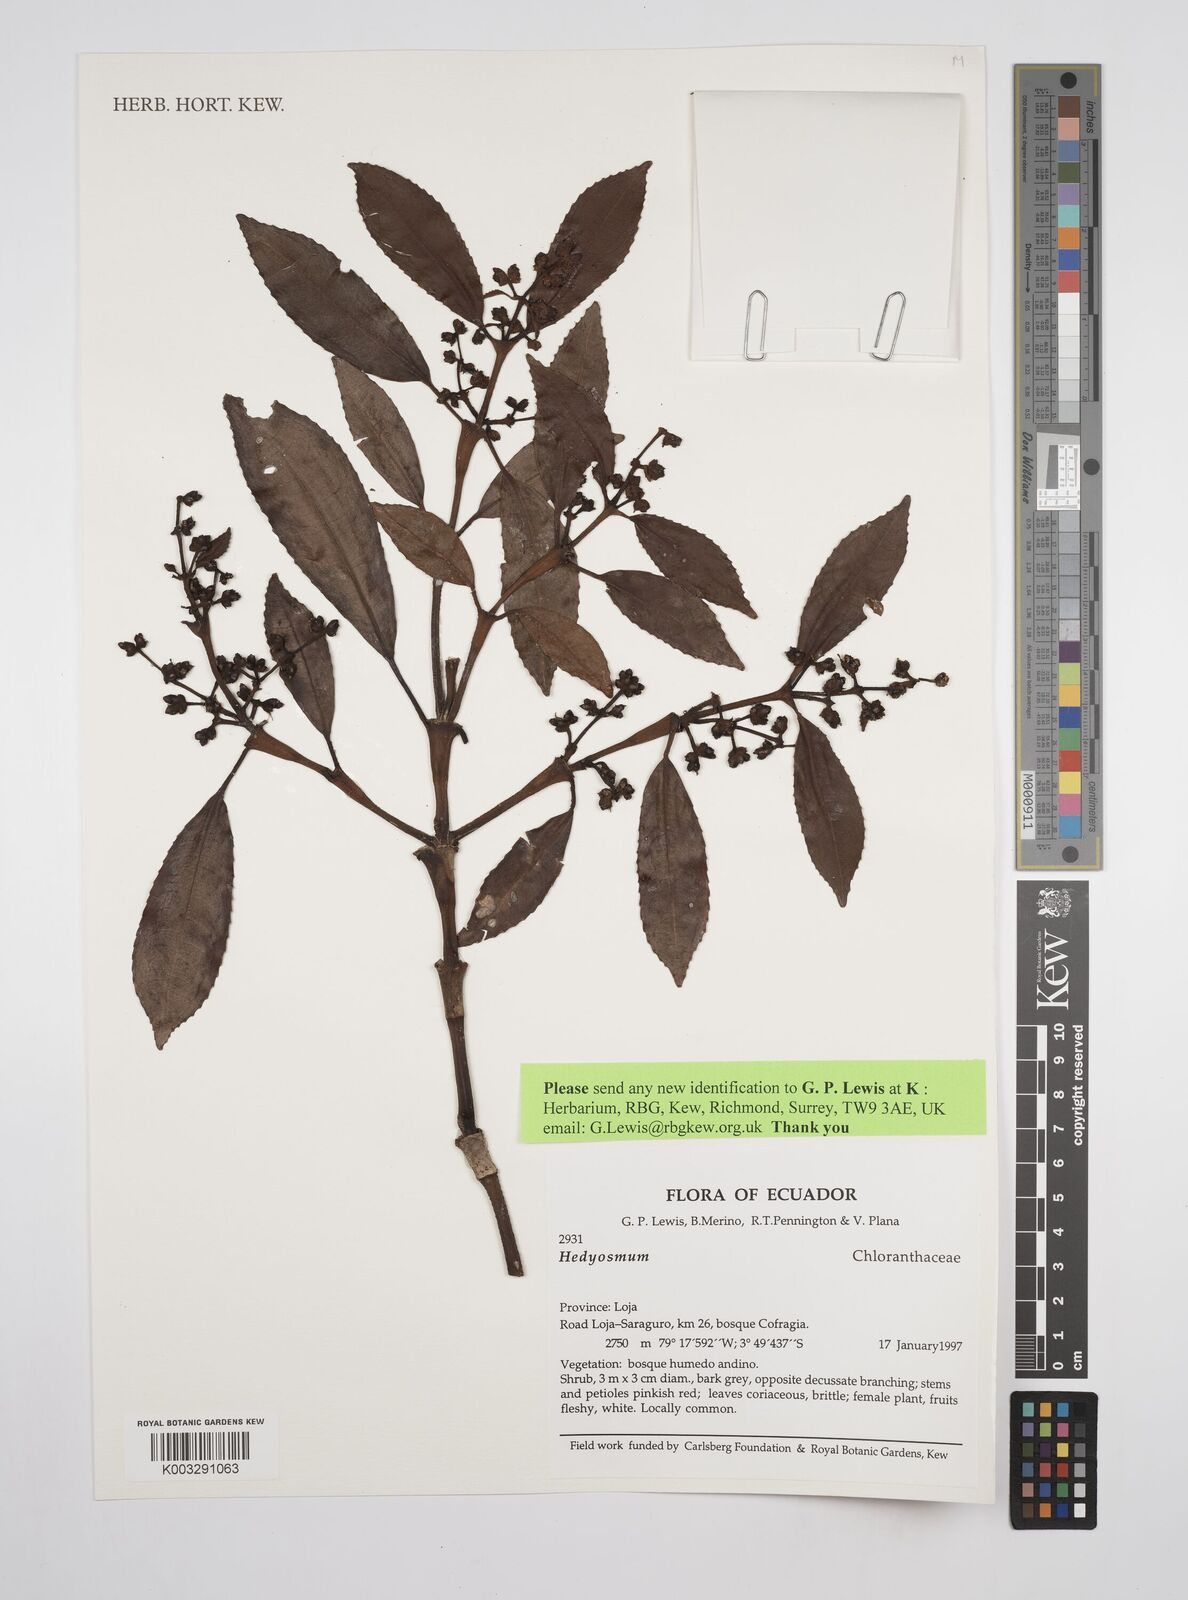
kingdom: Plantae
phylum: Tracheophyta
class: Magnoliopsida
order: Chloranthales
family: Chloranthaceae
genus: Hedyosmum
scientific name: Hedyosmum
